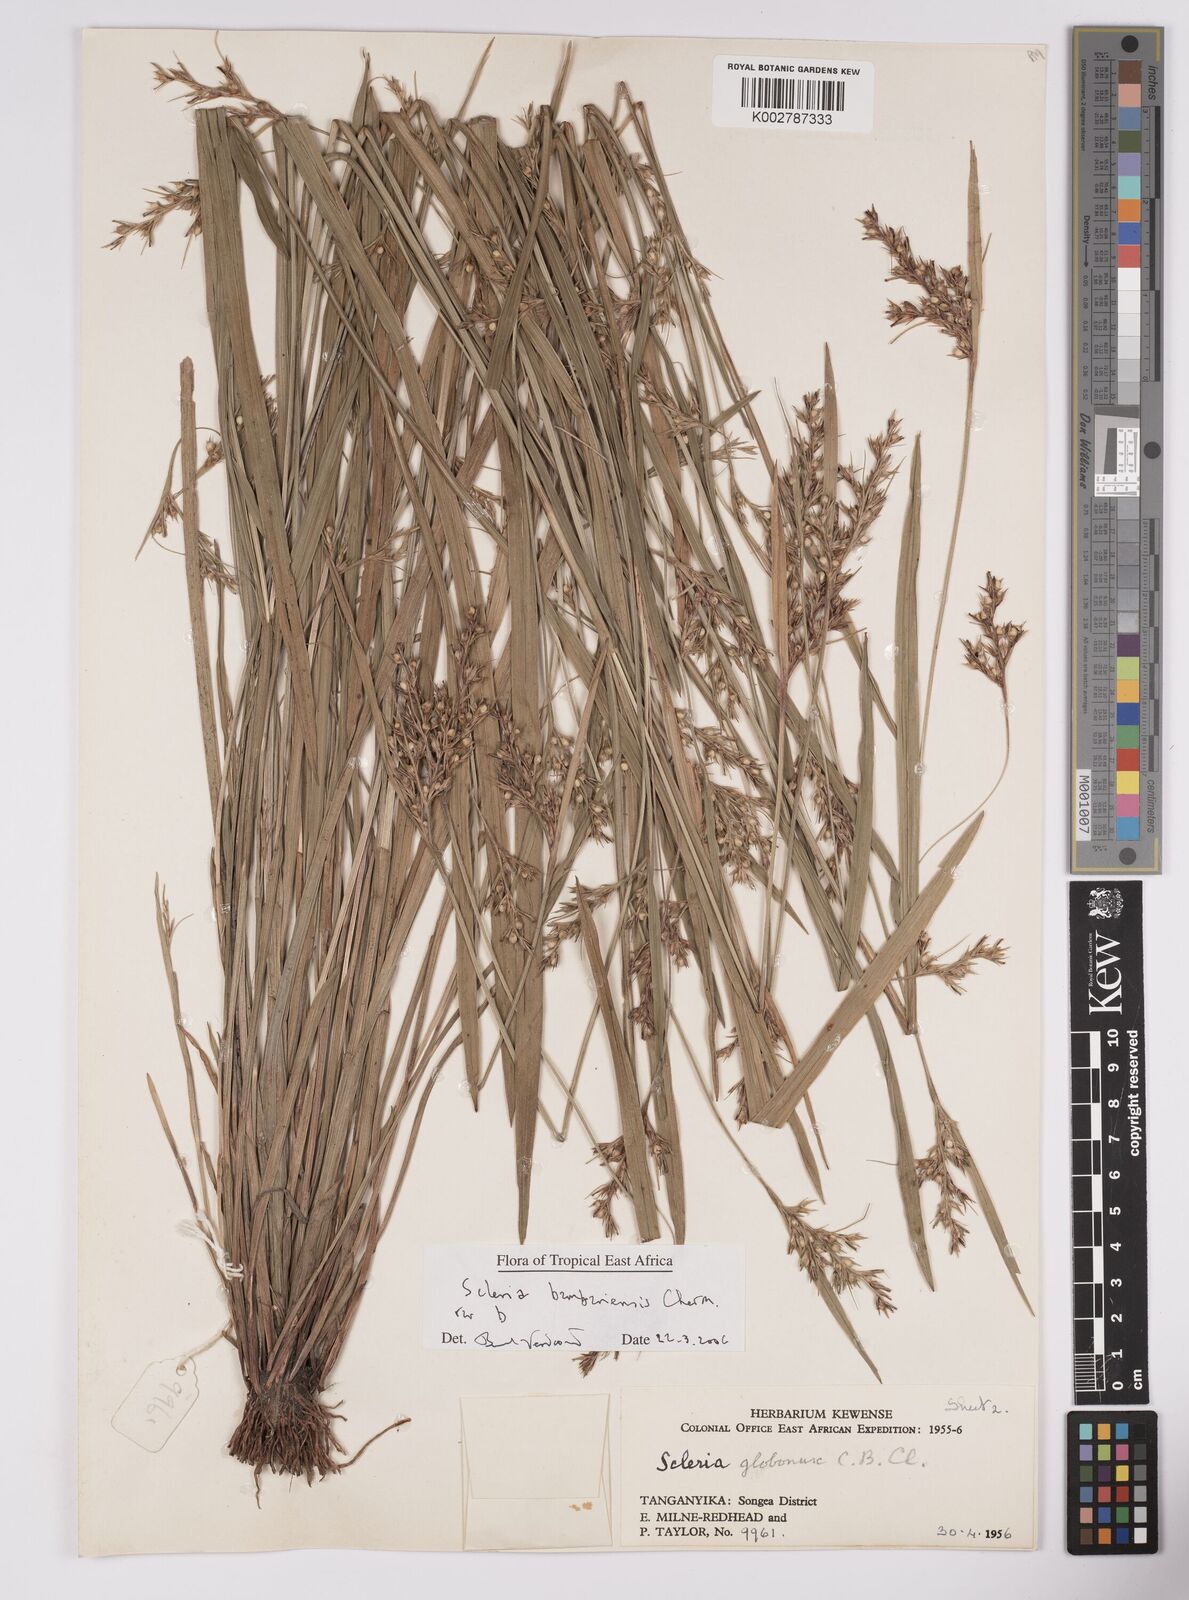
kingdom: Plantae
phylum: Tracheophyta
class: Liliopsida
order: Poales
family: Cyperaceae
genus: Scleria
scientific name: Scleria bambariensis
